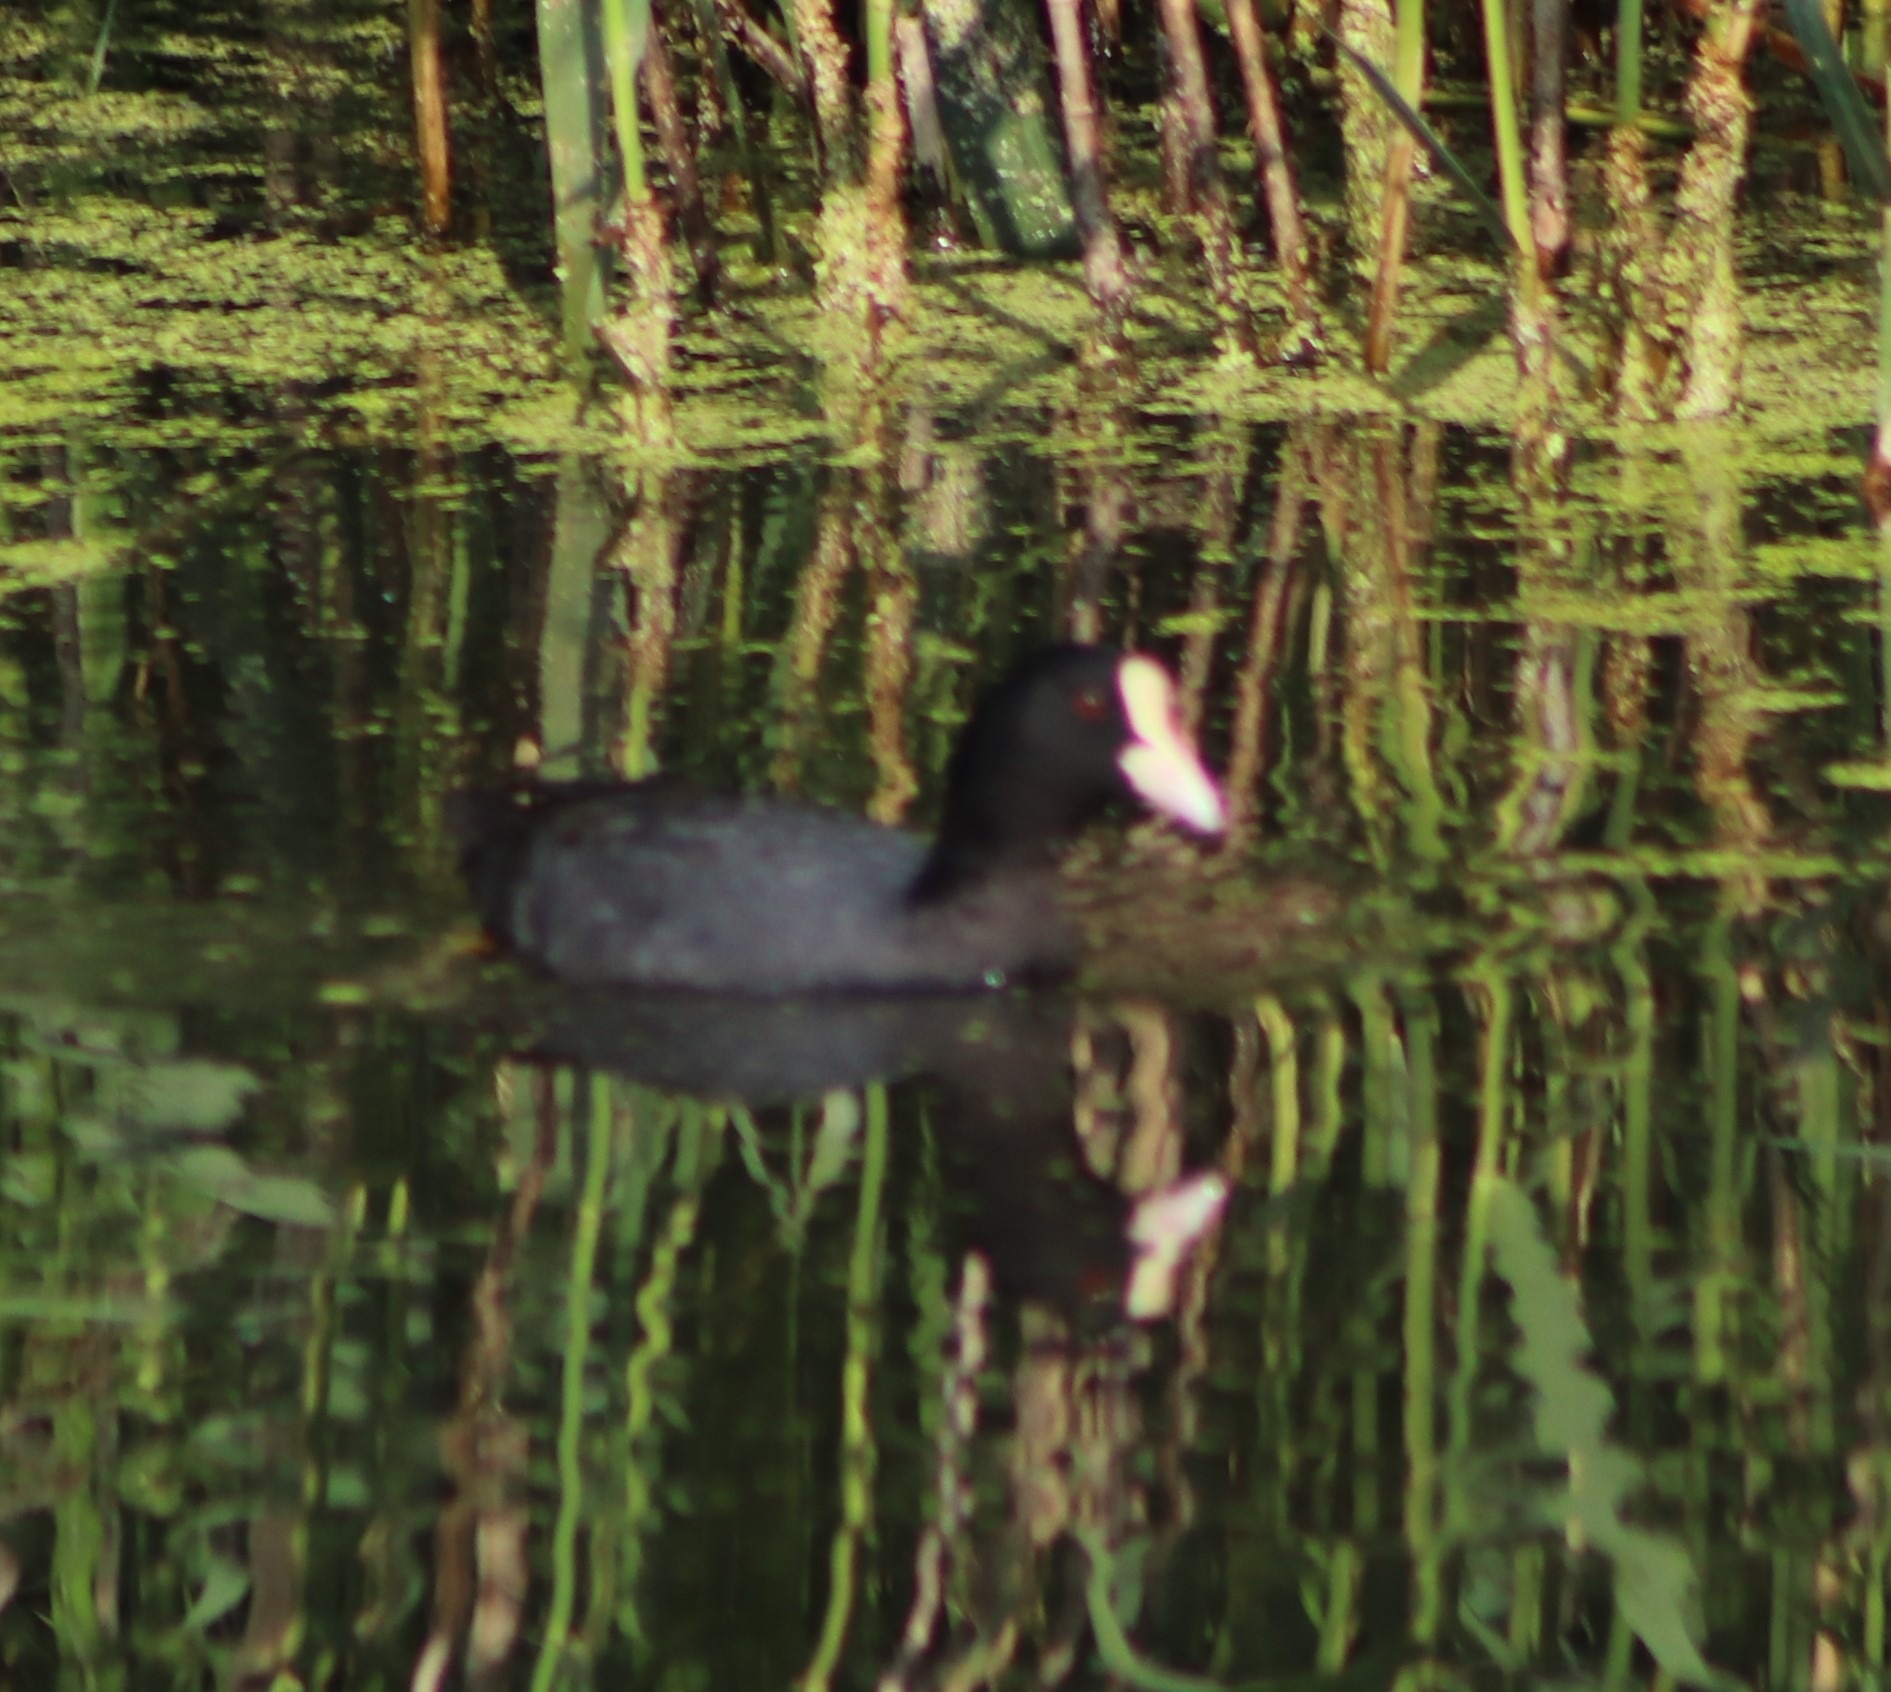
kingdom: Animalia
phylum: Chordata
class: Aves
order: Gruiformes
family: Rallidae
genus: Fulica
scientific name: Fulica atra
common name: Blishøne
